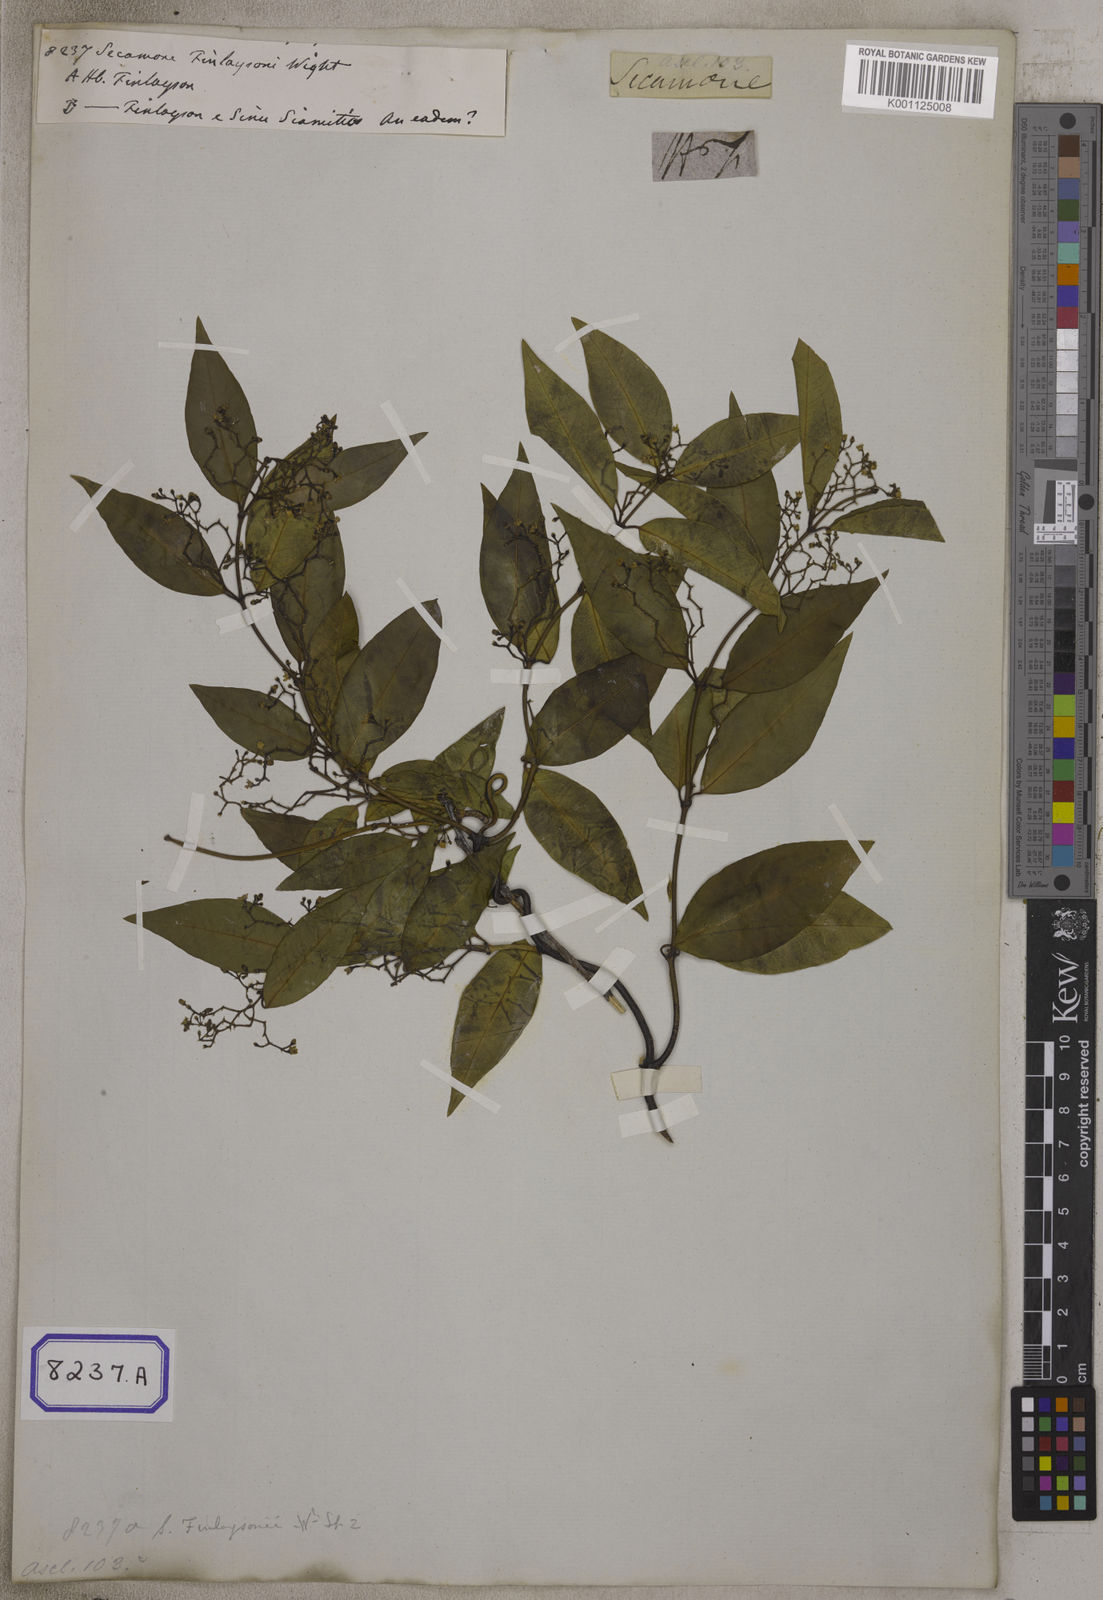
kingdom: Plantae
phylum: Tracheophyta
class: Magnoliopsida
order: Gentianales
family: Apocynaceae
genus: Secamone
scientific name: Secamone elliptica
